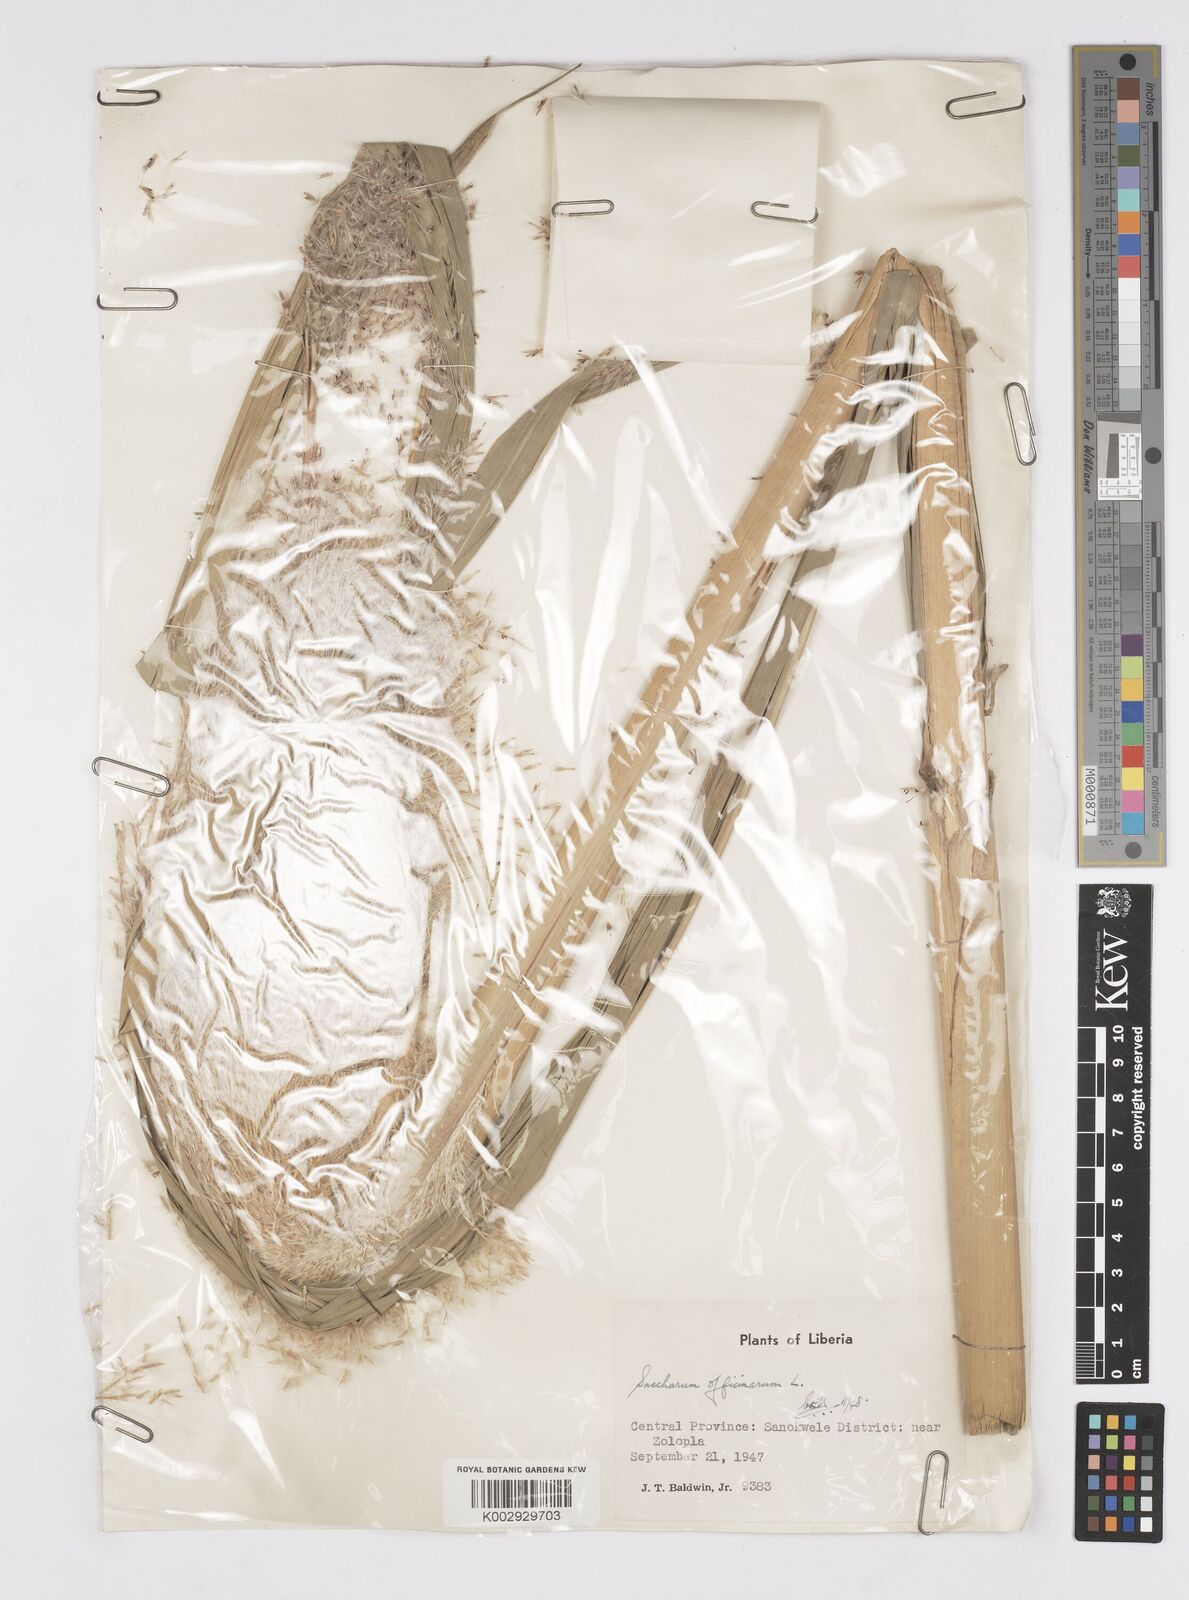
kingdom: Plantae
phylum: Tracheophyta
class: Liliopsida
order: Poales
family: Poaceae
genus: Saccharum
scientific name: Saccharum officinarum
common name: Sugarcane
